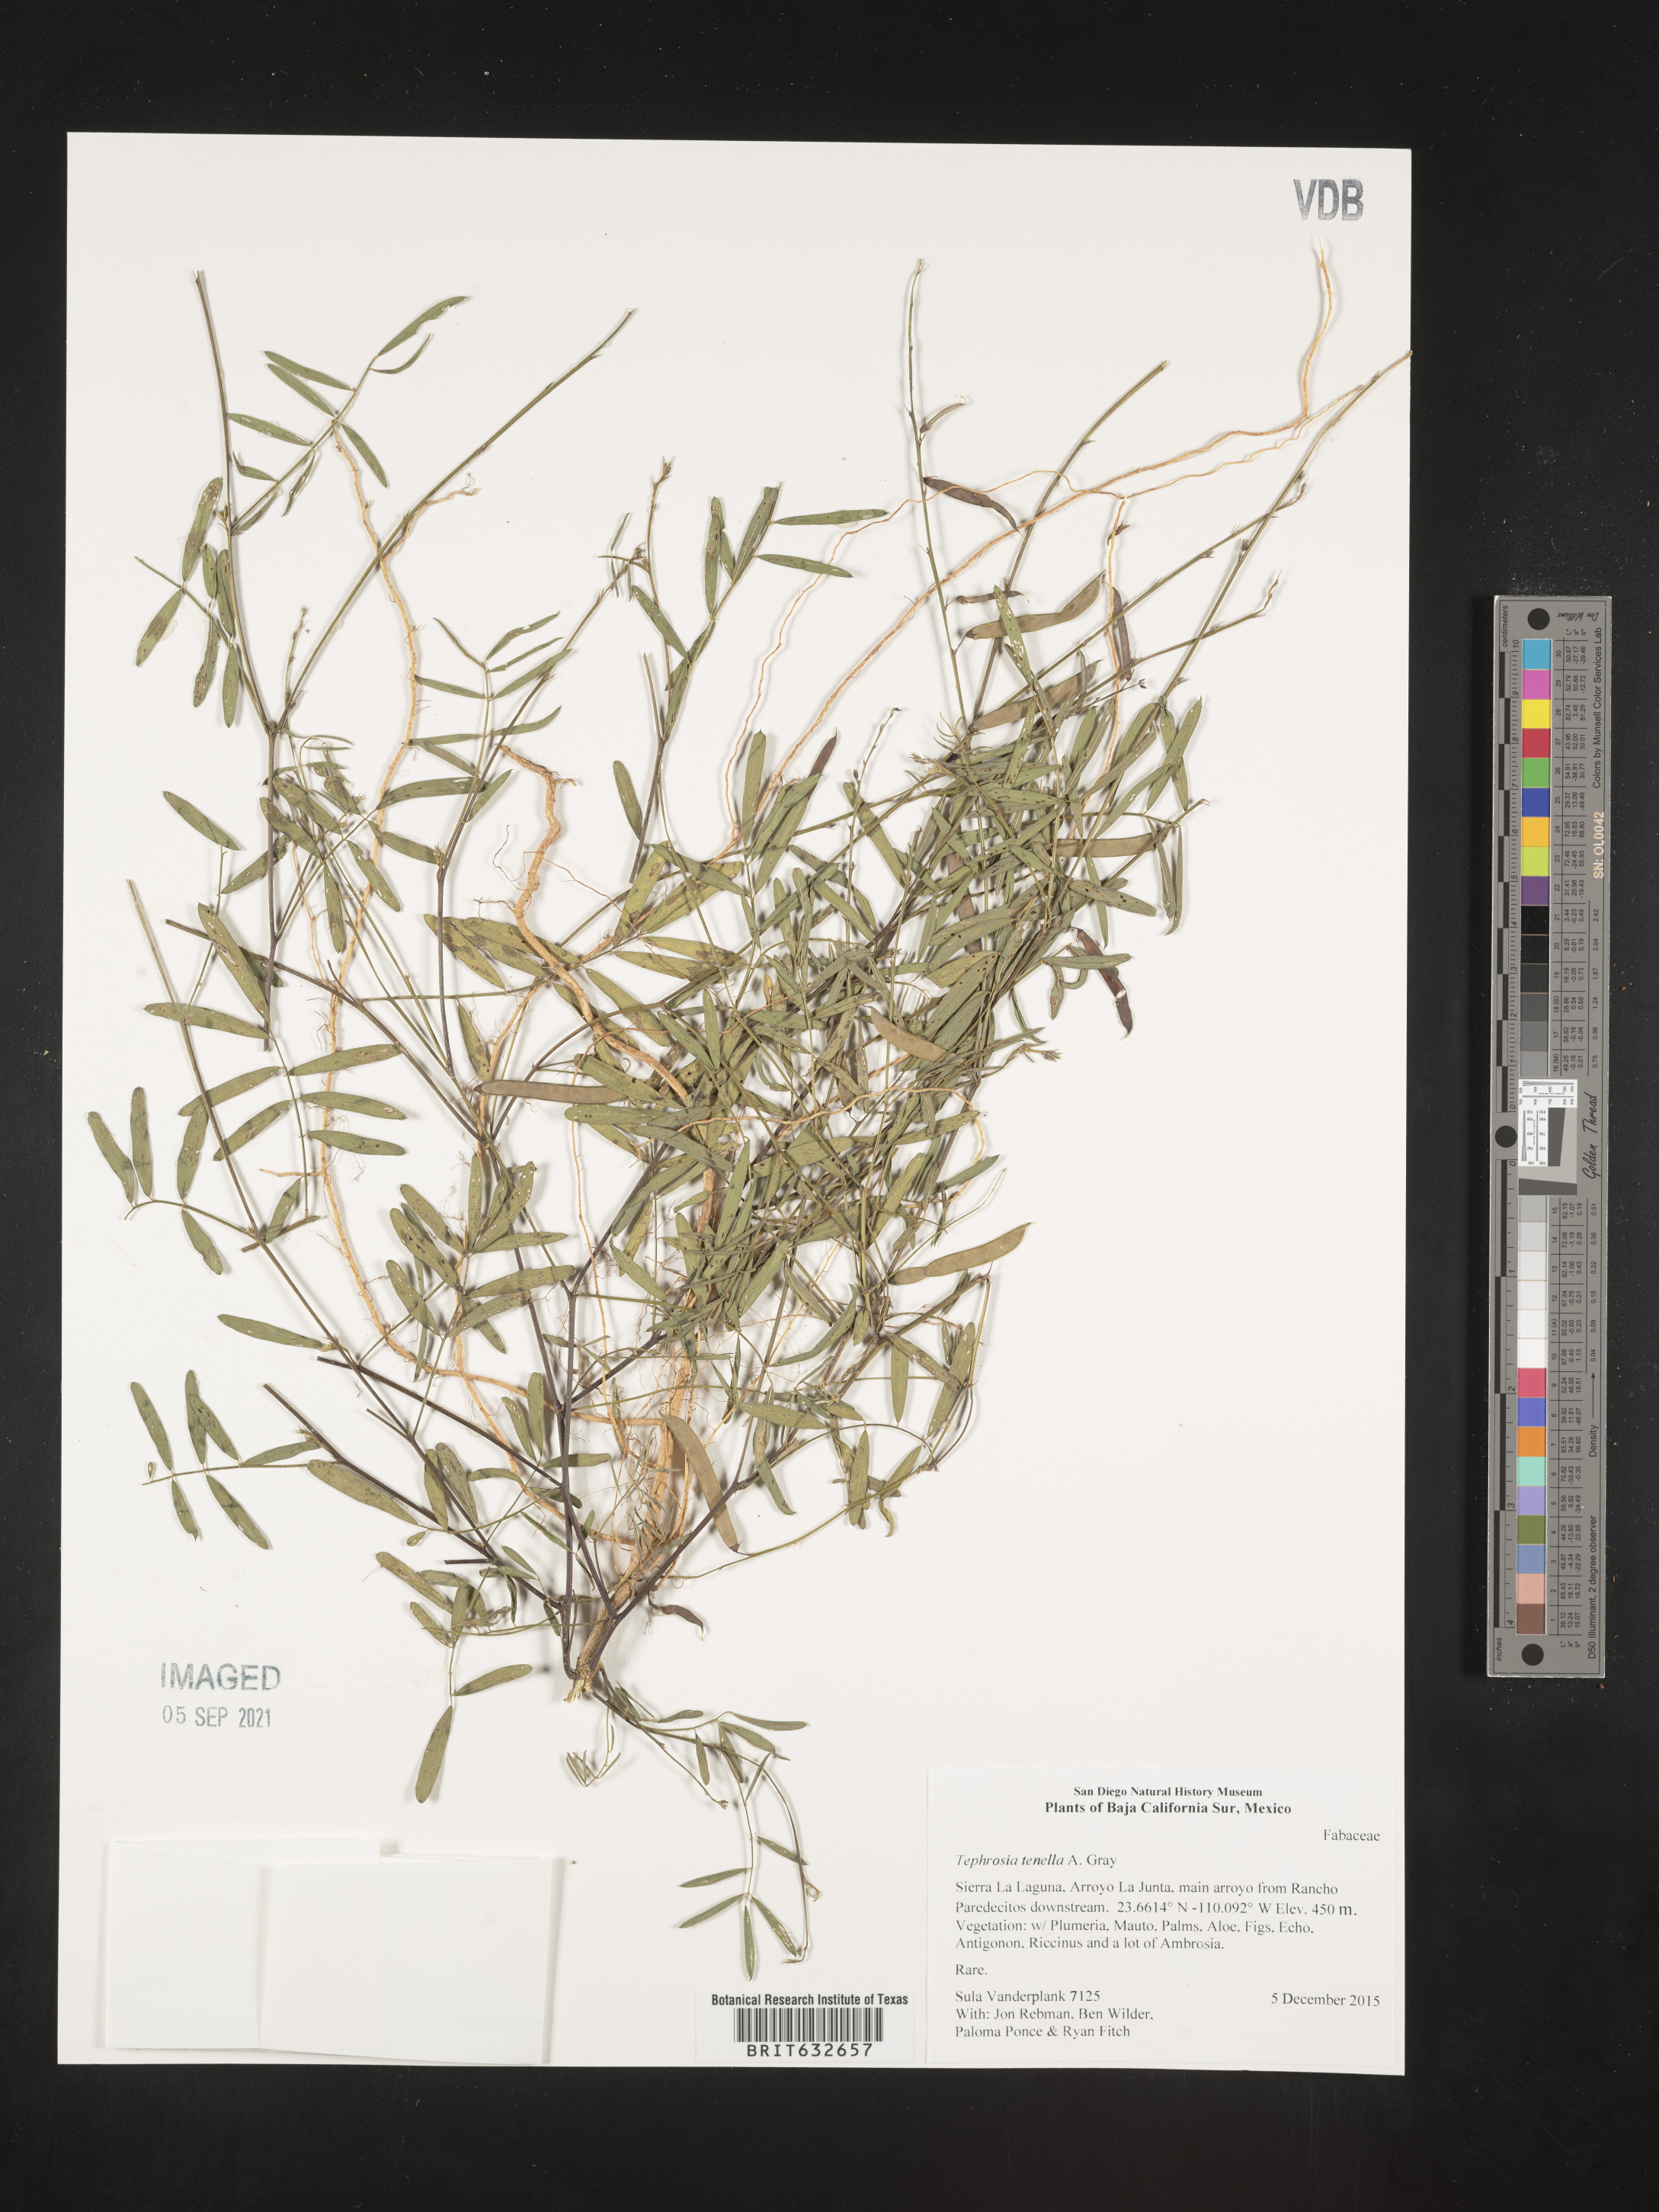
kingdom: Plantae
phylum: Tracheophyta
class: Magnoliopsida
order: Fabales
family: Fabaceae
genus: Tephrosia
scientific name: Tephrosia
